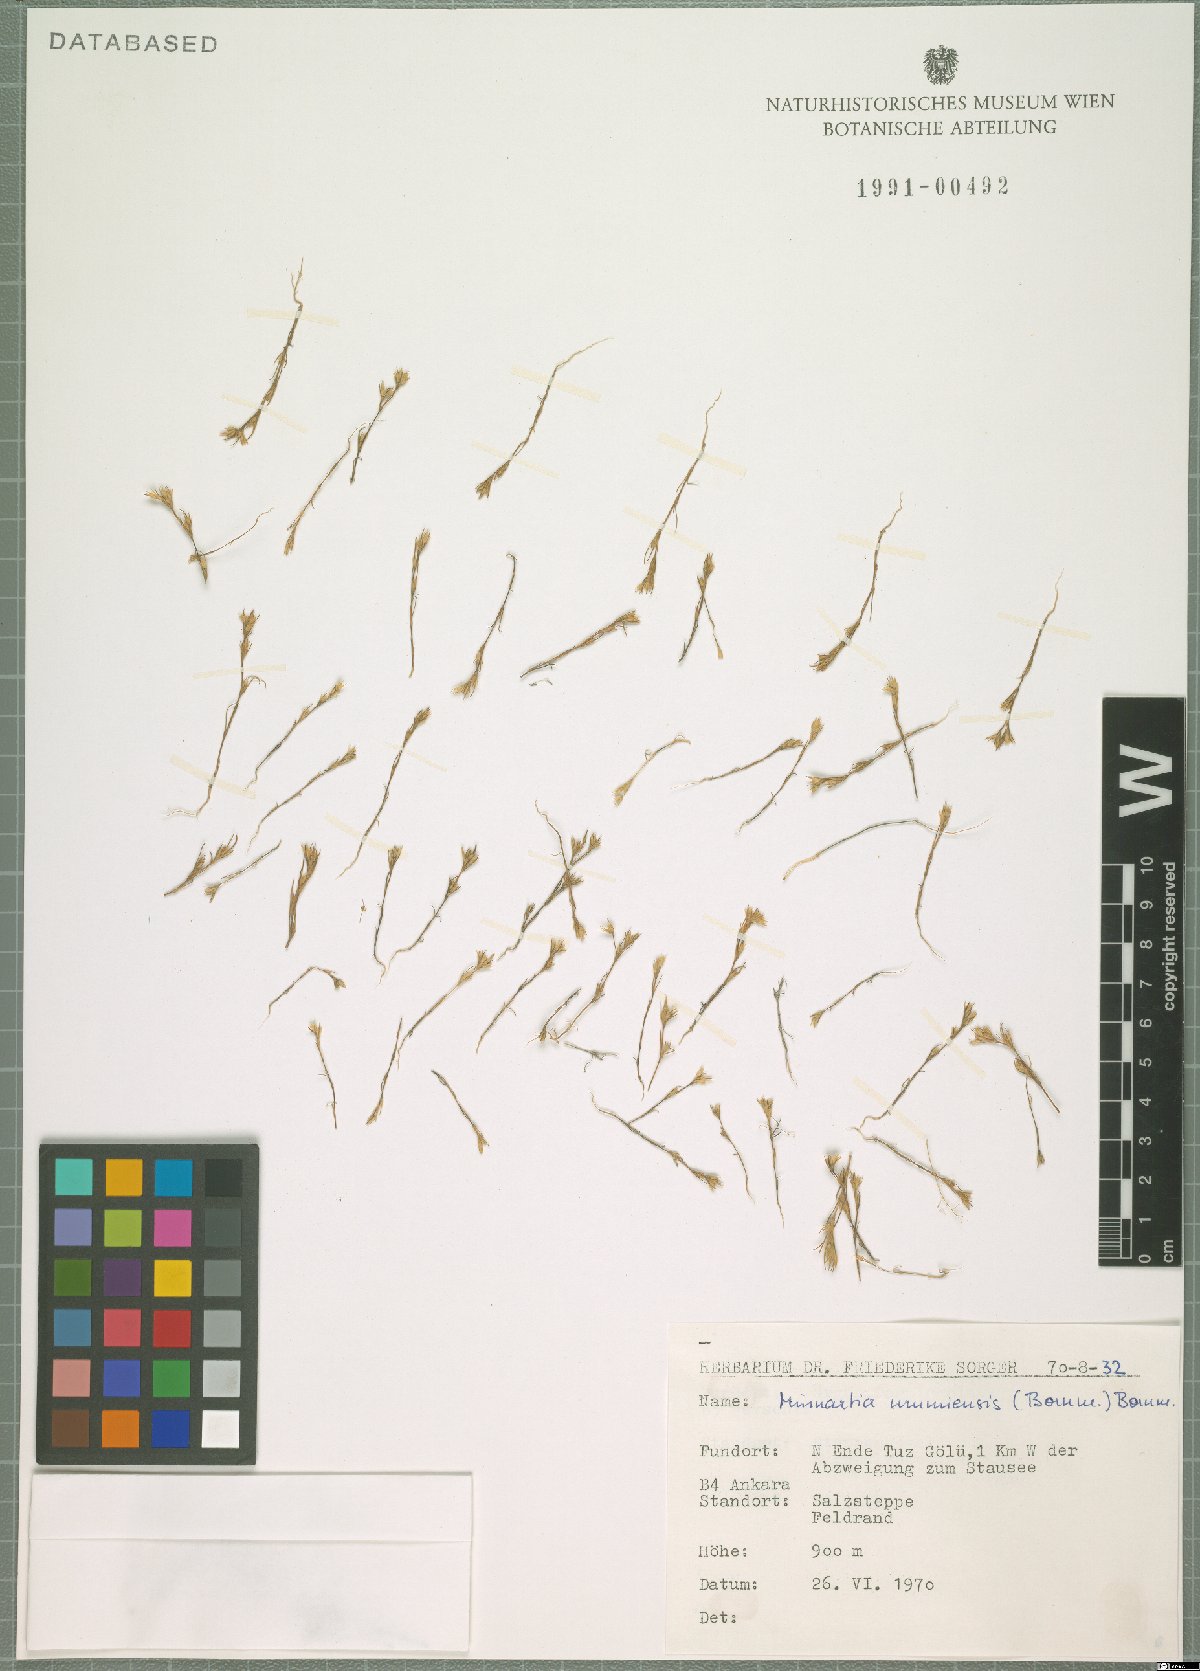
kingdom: Plantae
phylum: Tracheophyta
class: Magnoliopsida
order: Caryophyllales
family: Caryophyllaceae
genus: Sabulina
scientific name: Sabulina urumiensis
